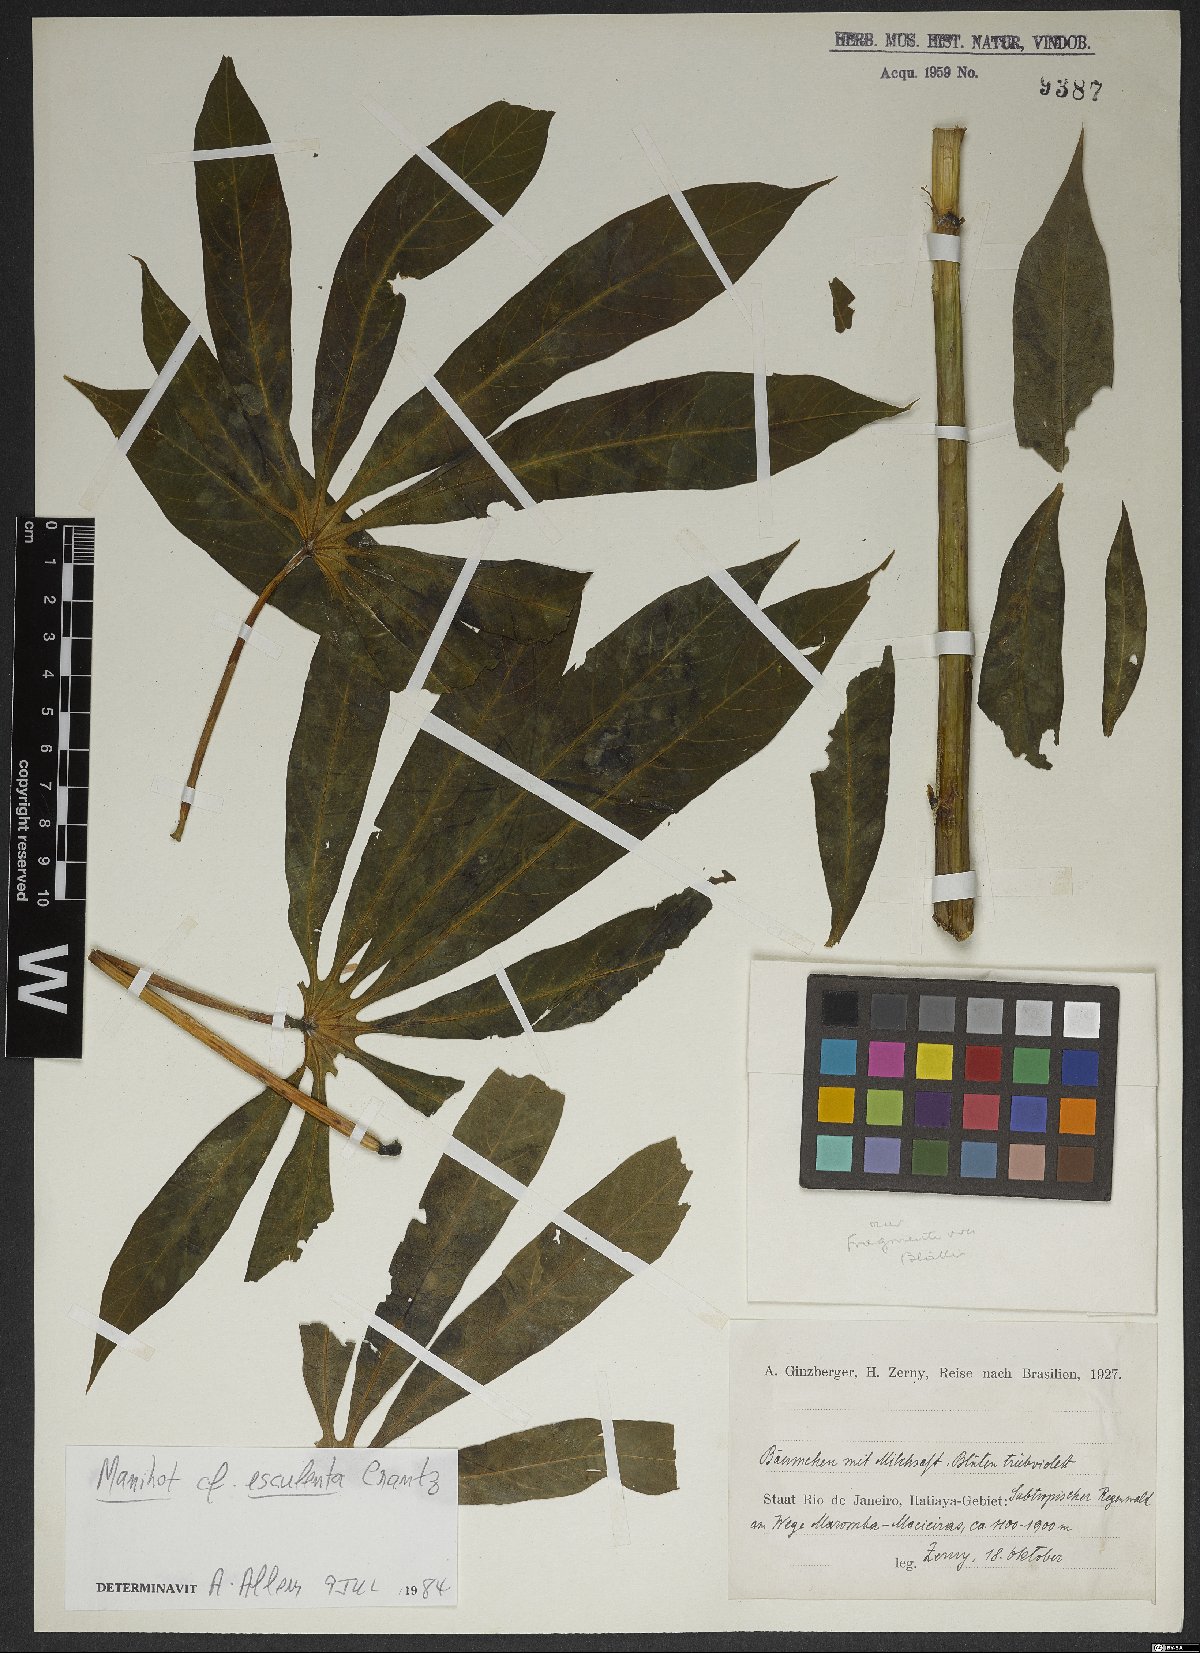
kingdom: Plantae
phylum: Tracheophyta
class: Magnoliopsida
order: Malpighiales
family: Euphorbiaceae
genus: Manihot
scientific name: Manihot esculenta
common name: Cassava
